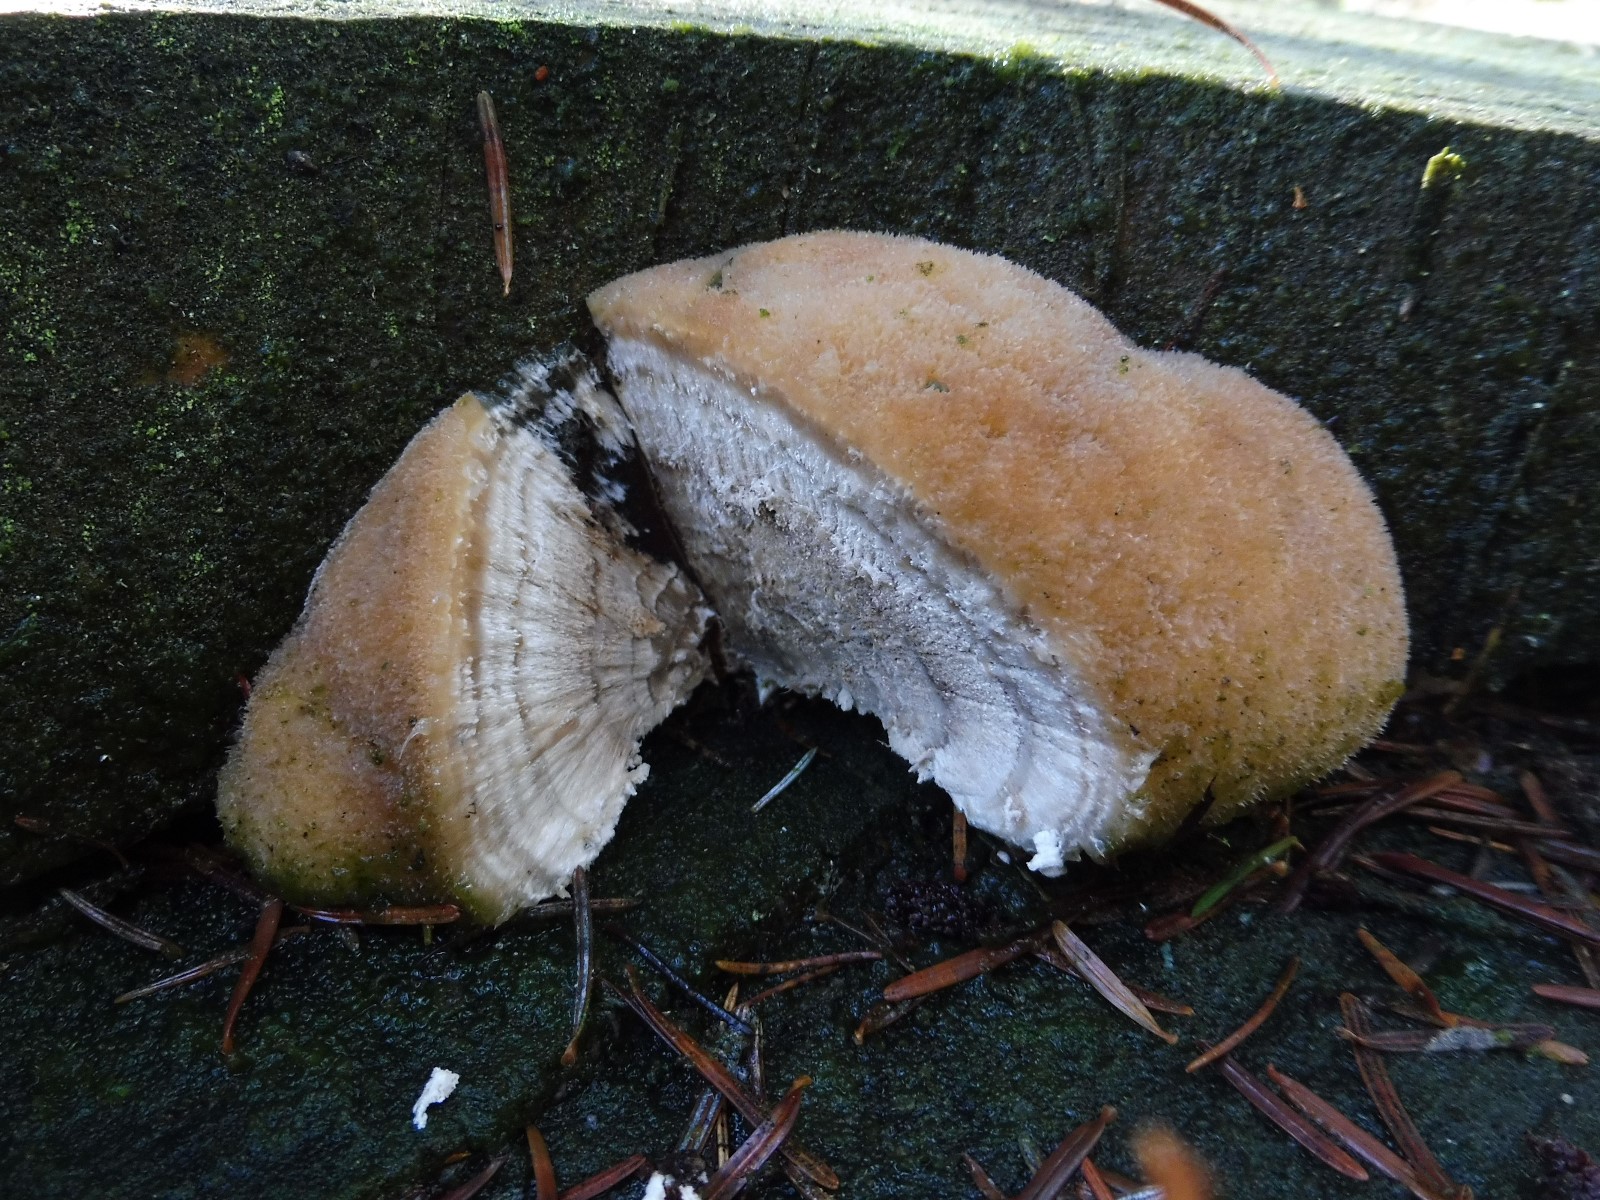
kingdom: Fungi
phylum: Basidiomycota
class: Agaricomycetes
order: Polyporales
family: Dacryobolaceae
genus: Postia
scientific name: Postia ptychogaster
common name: støvende kødporesvamp
